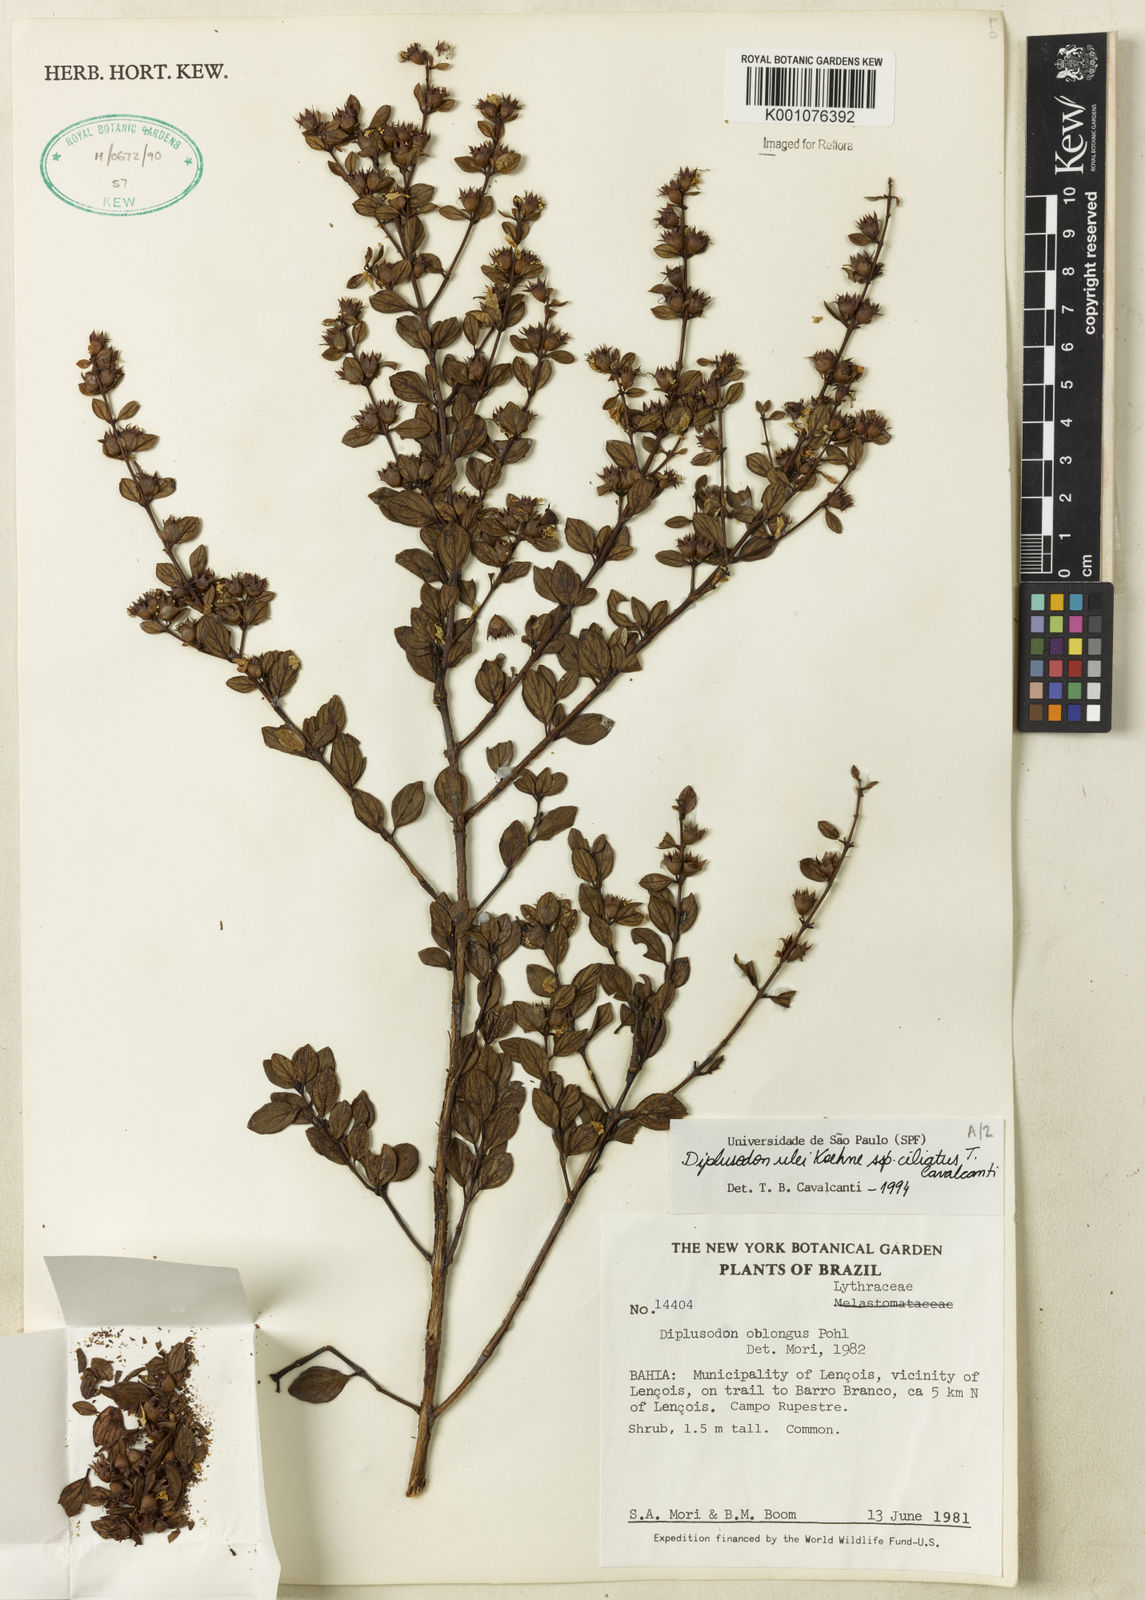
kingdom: Plantae
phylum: Tracheophyta
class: Magnoliopsida
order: Myrtales
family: Lythraceae
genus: Diplusodon
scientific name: Diplusodon ulei
